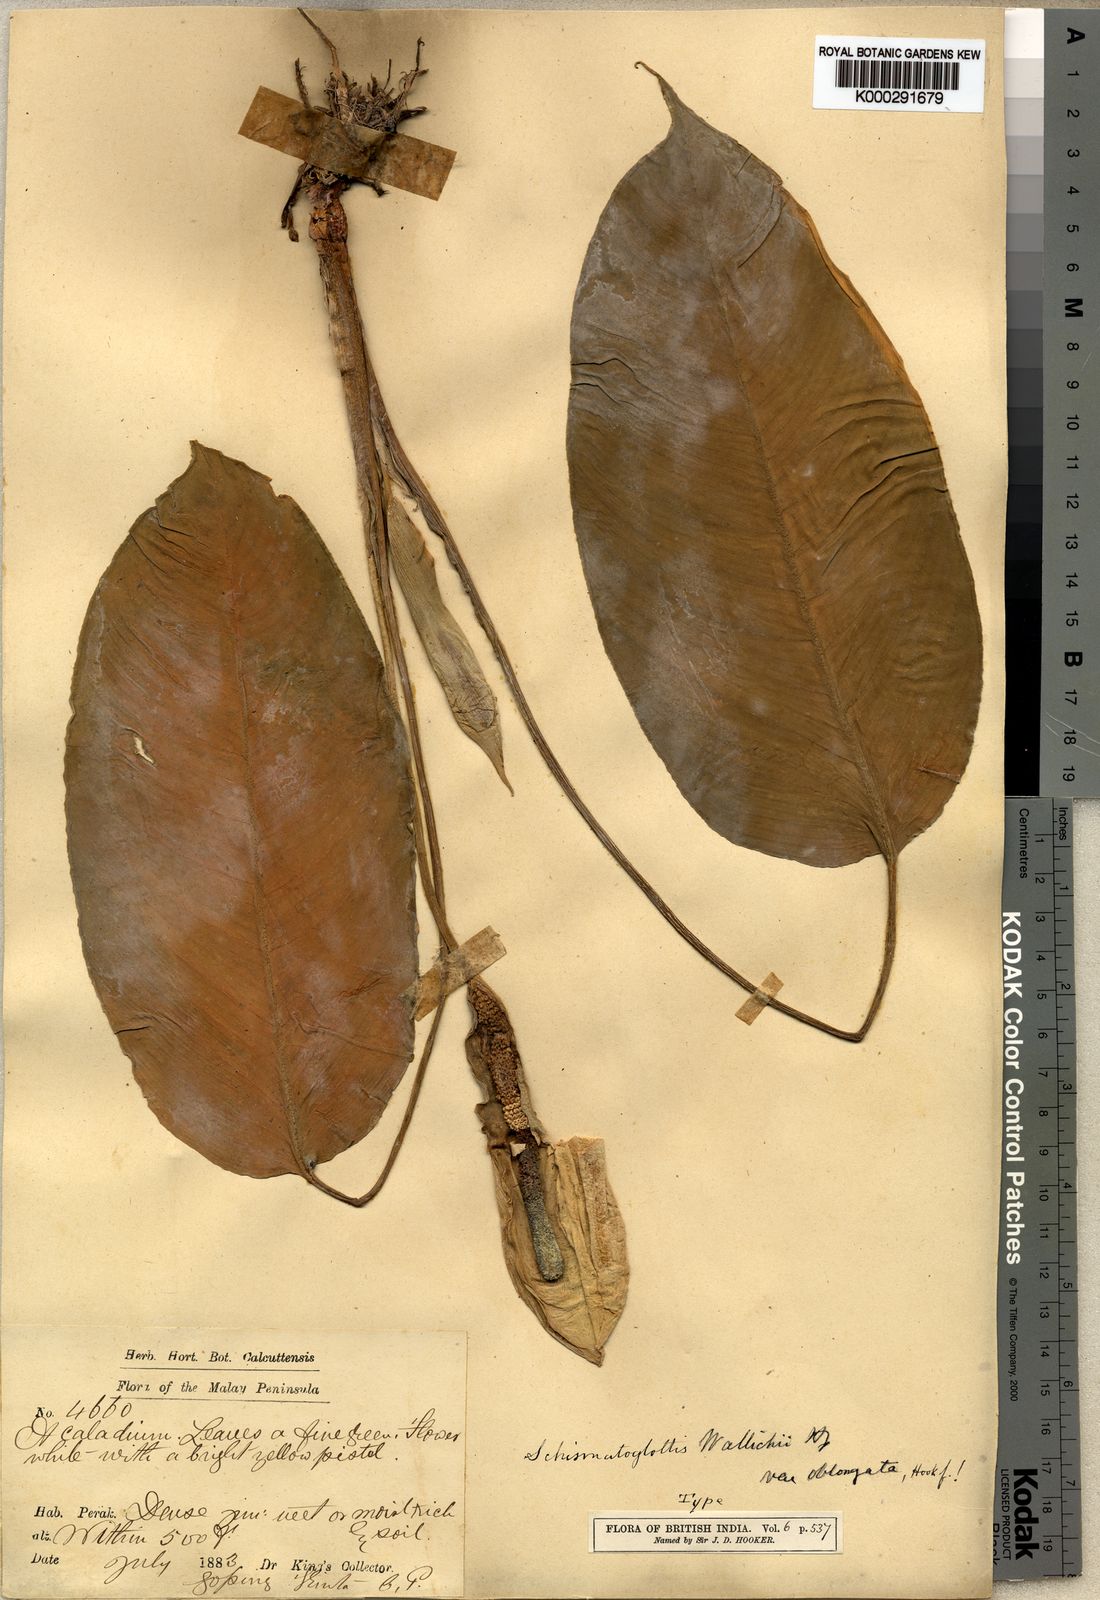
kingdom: Plantae
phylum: Tracheophyta
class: Liliopsida
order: Alismatales
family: Araceae
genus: Schismatoglottis
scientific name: Schismatoglottis lowiae
